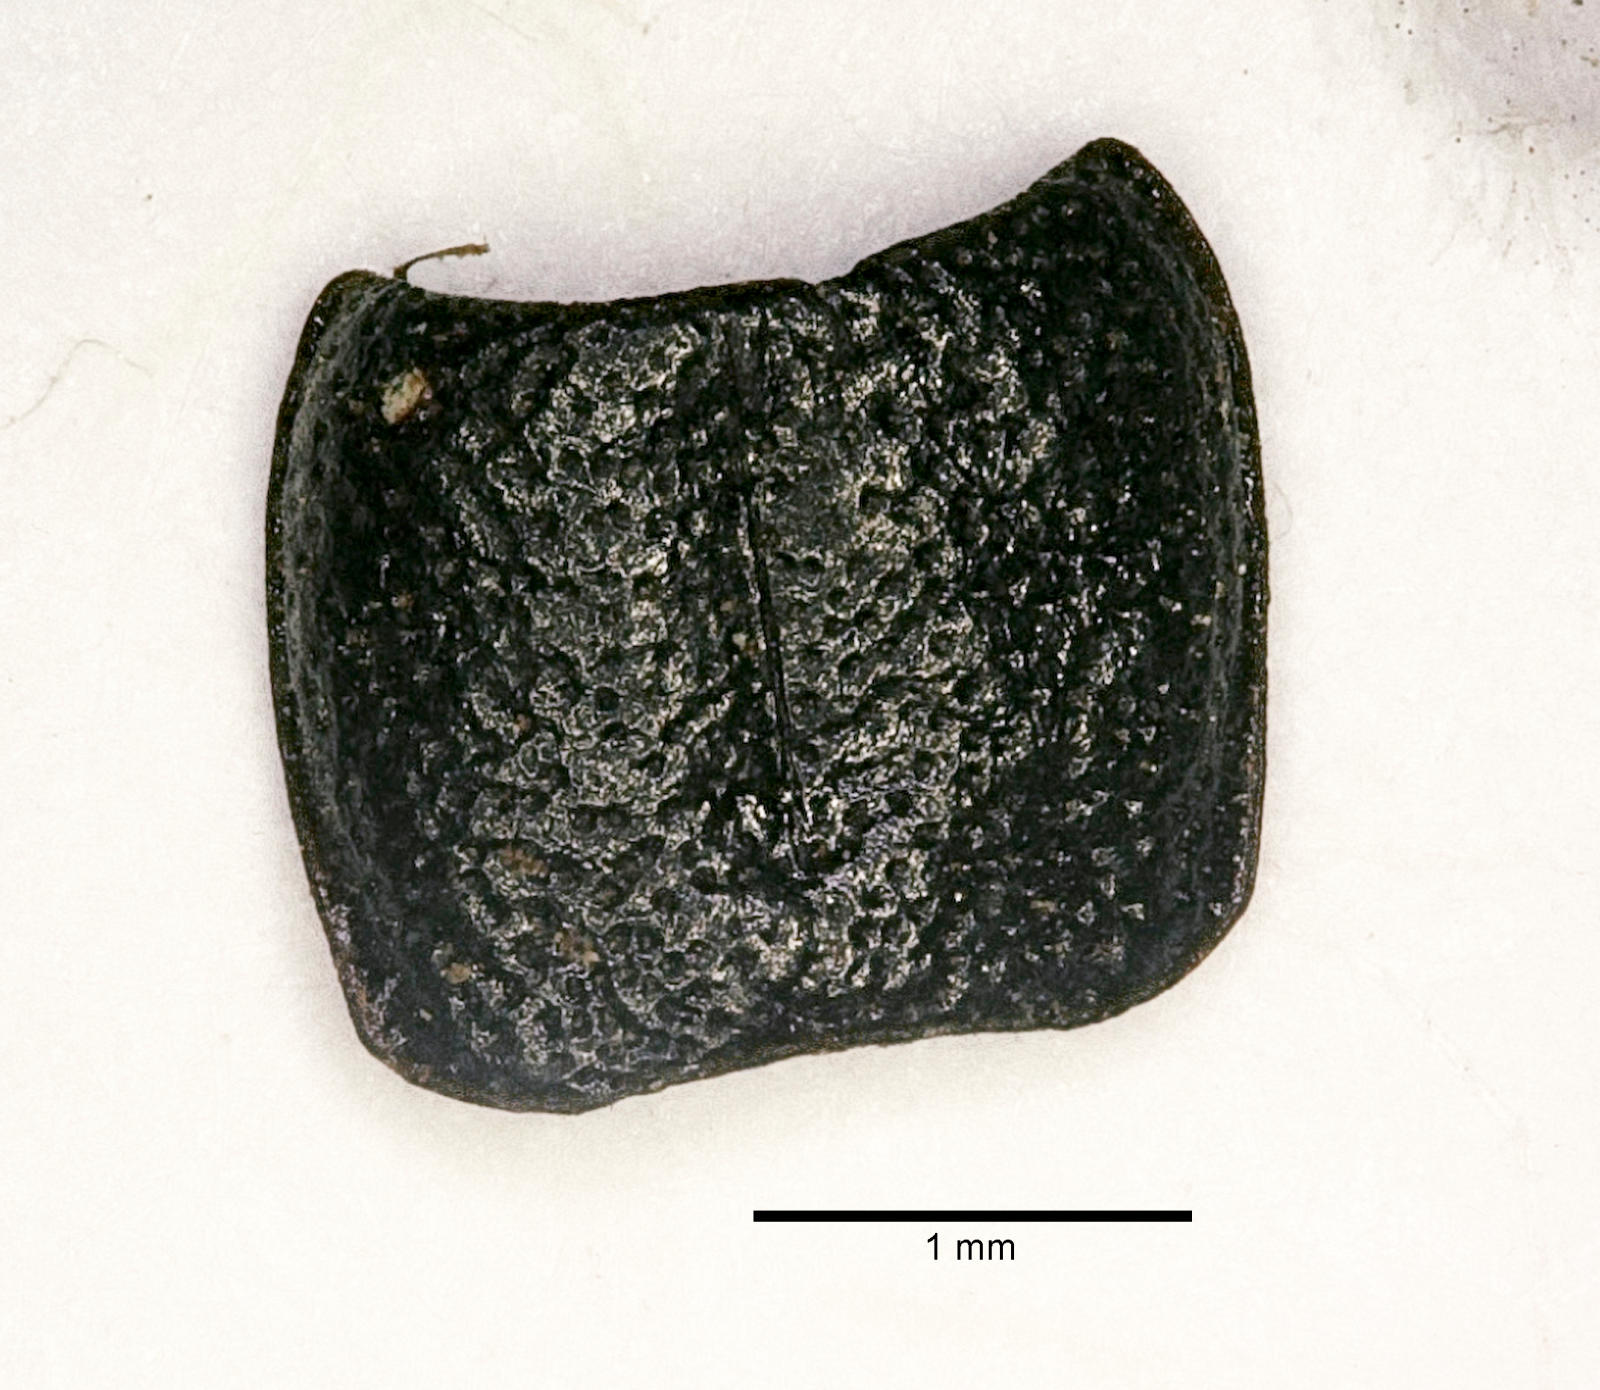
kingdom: Animalia
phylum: Arthropoda
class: Insecta
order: Coleoptera
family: Carabidae
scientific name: Carabidae
